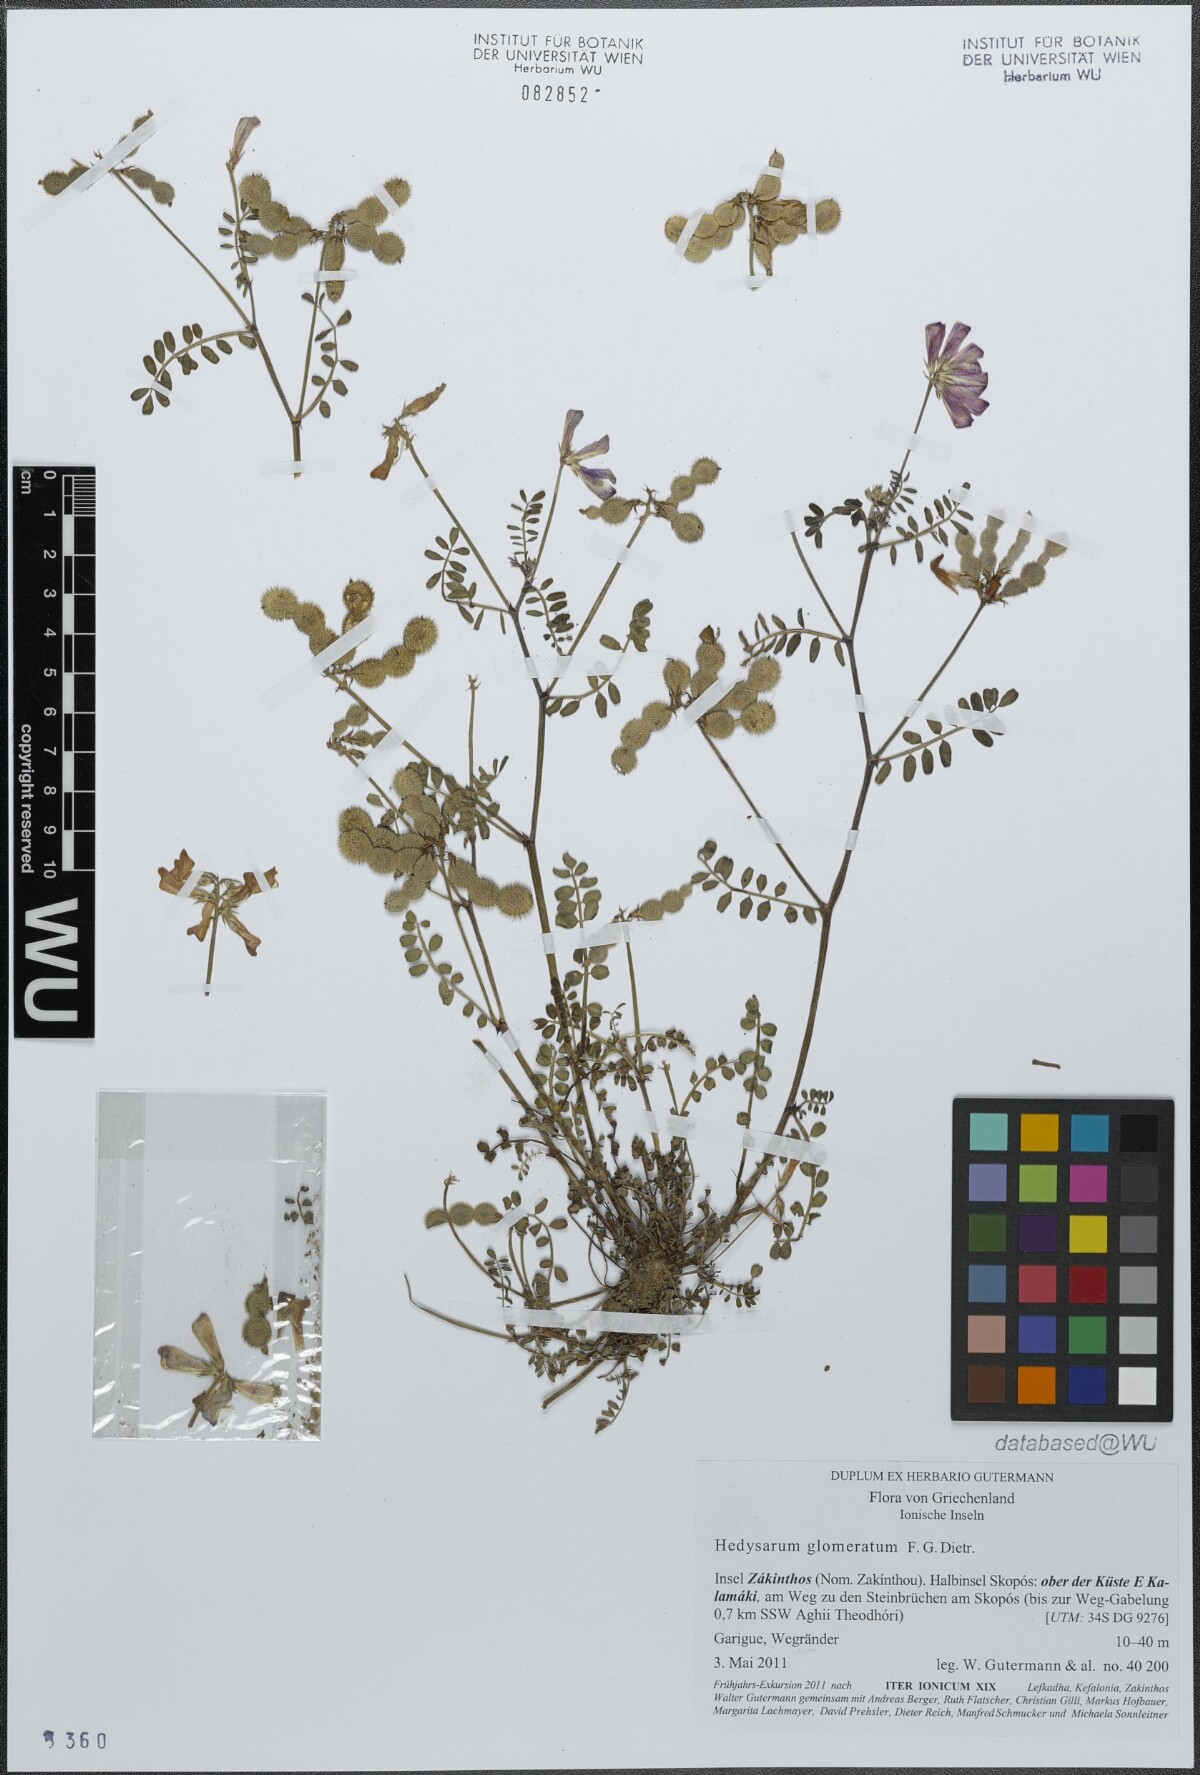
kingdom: Plantae
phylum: Tracheophyta
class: Magnoliopsida
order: Fabales
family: Fabaceae
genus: Sulla
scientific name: Sulla glomerata
